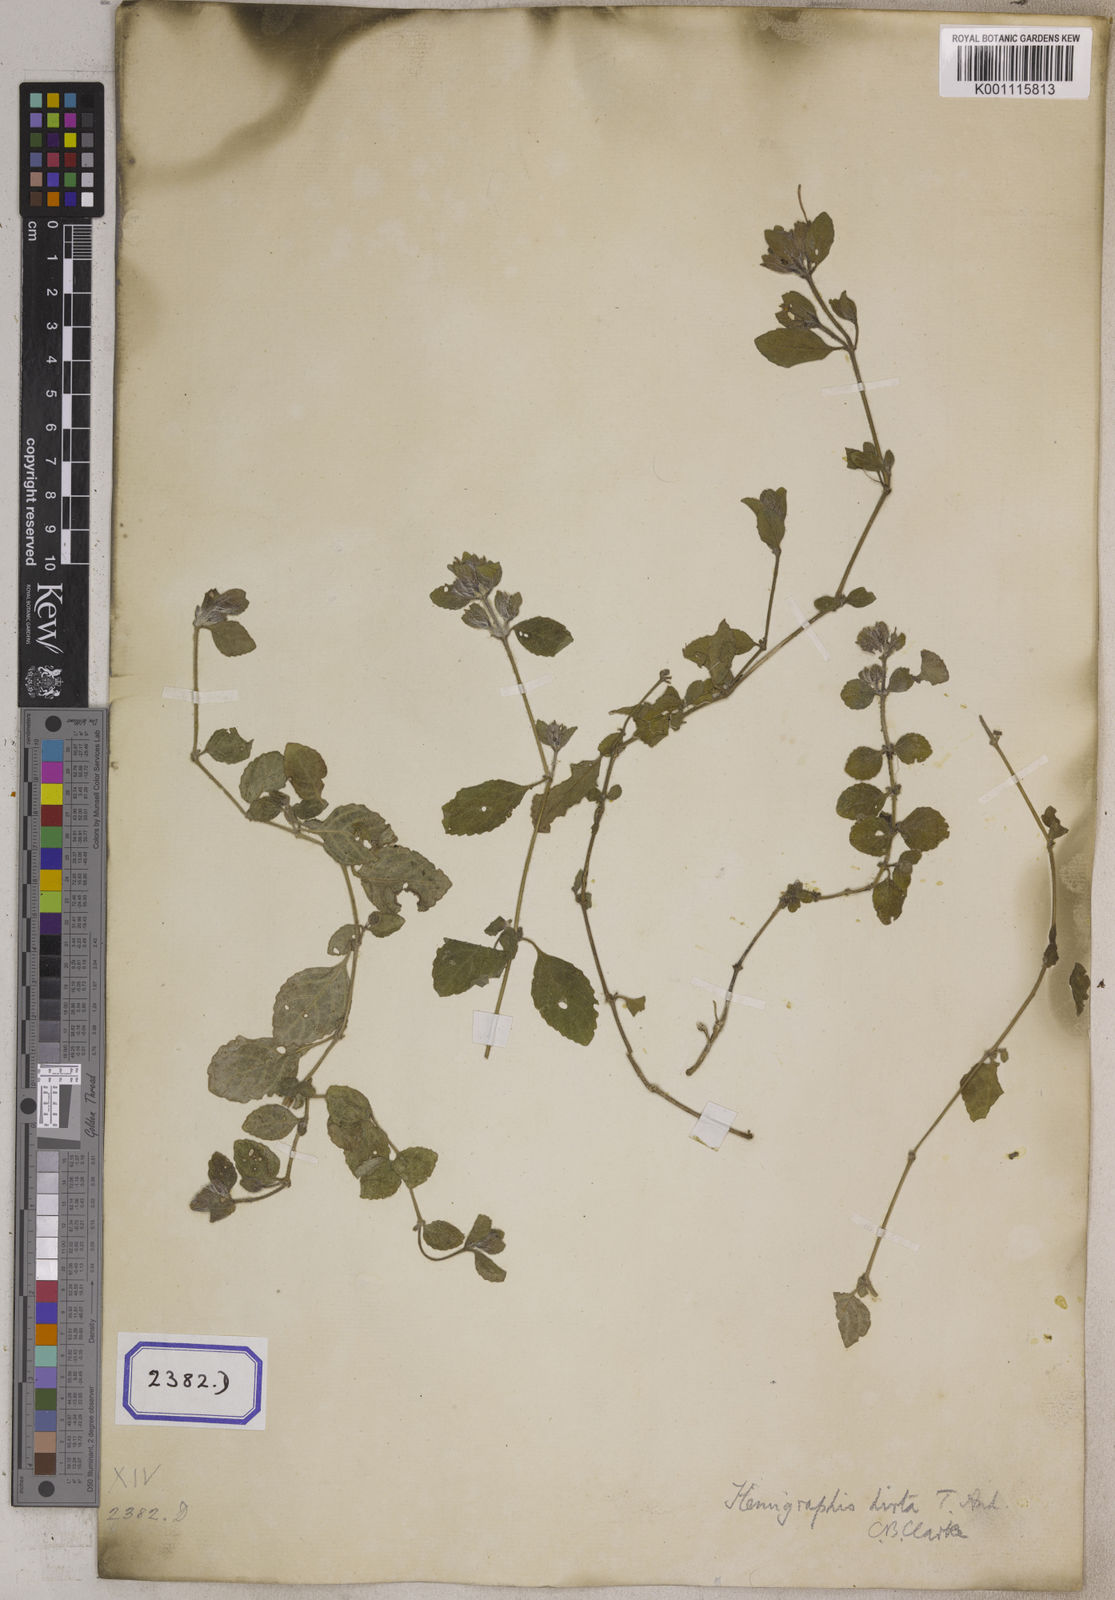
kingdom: Plantae
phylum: Tracheophyta
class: Magnoliopsida
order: Lamiales
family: Acanthaceae
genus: Strobilanthes
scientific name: Strobilanthes hirta
